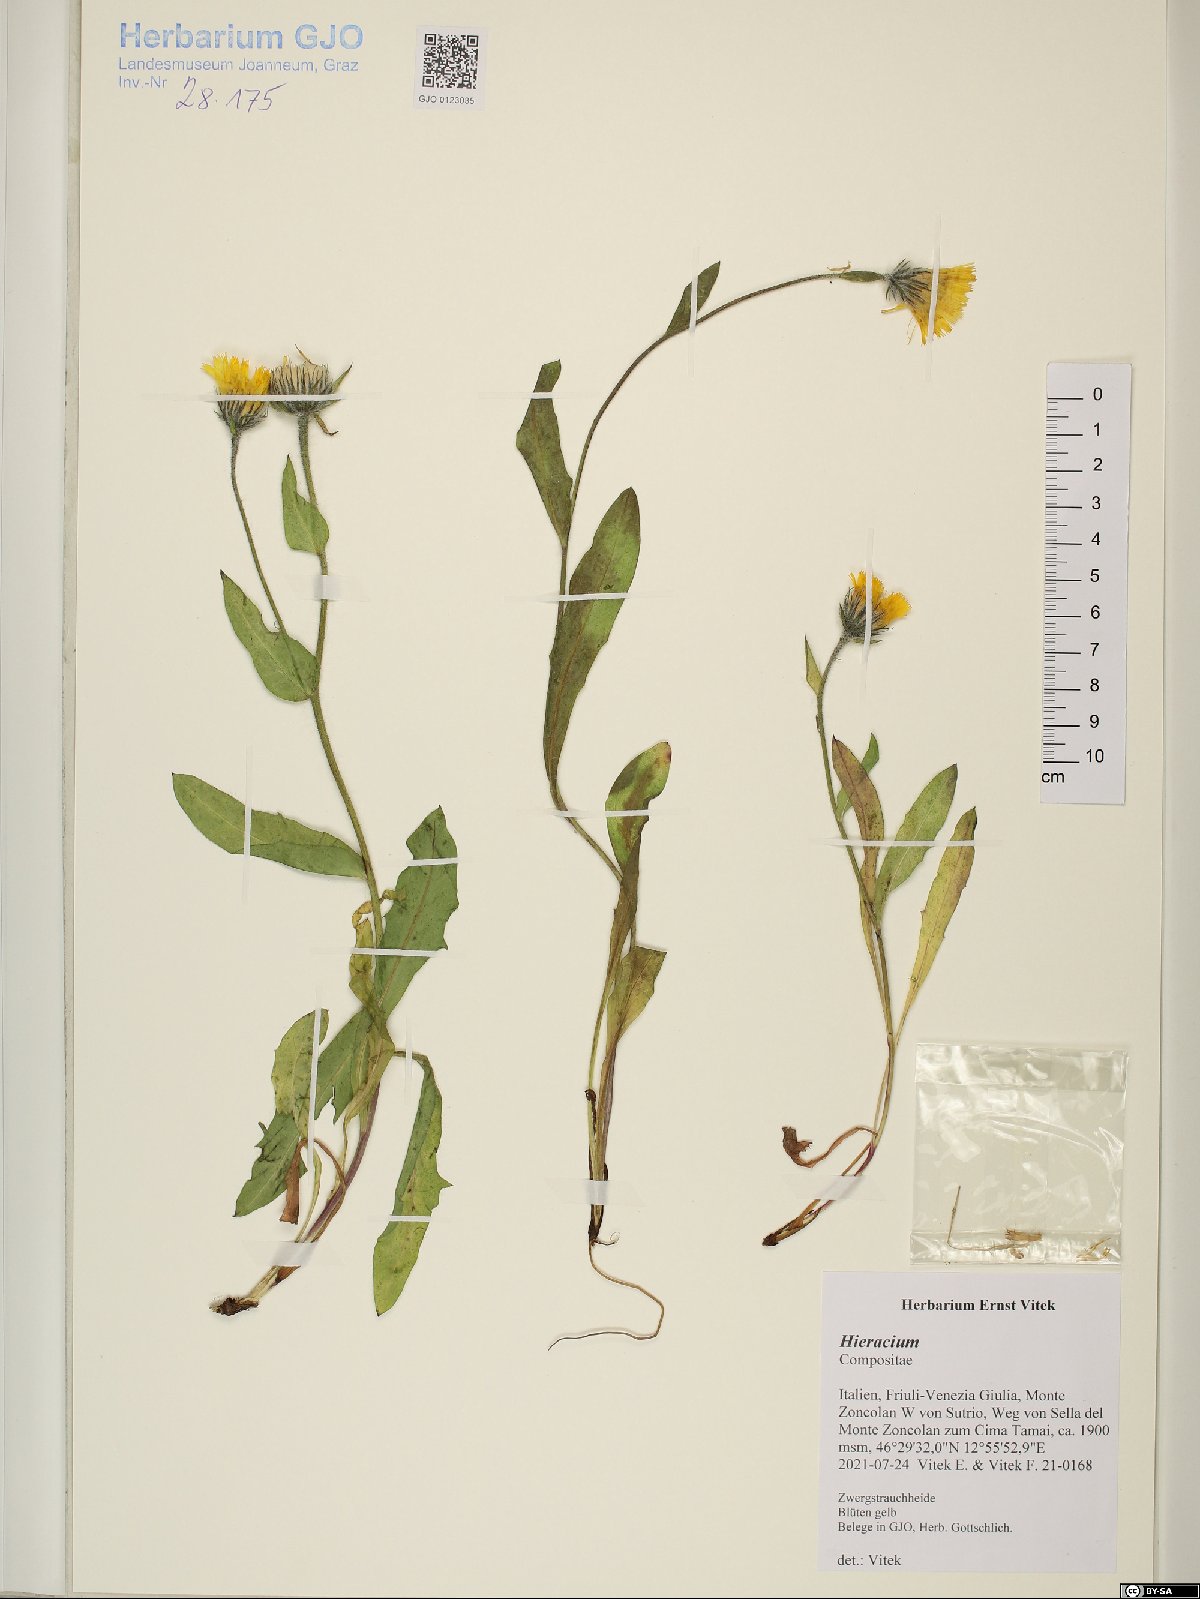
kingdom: Plantae
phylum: Tracheophyta
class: Magnoliopsida
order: Asterales
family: Asteraceae
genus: Hieracium
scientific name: Hieracium
